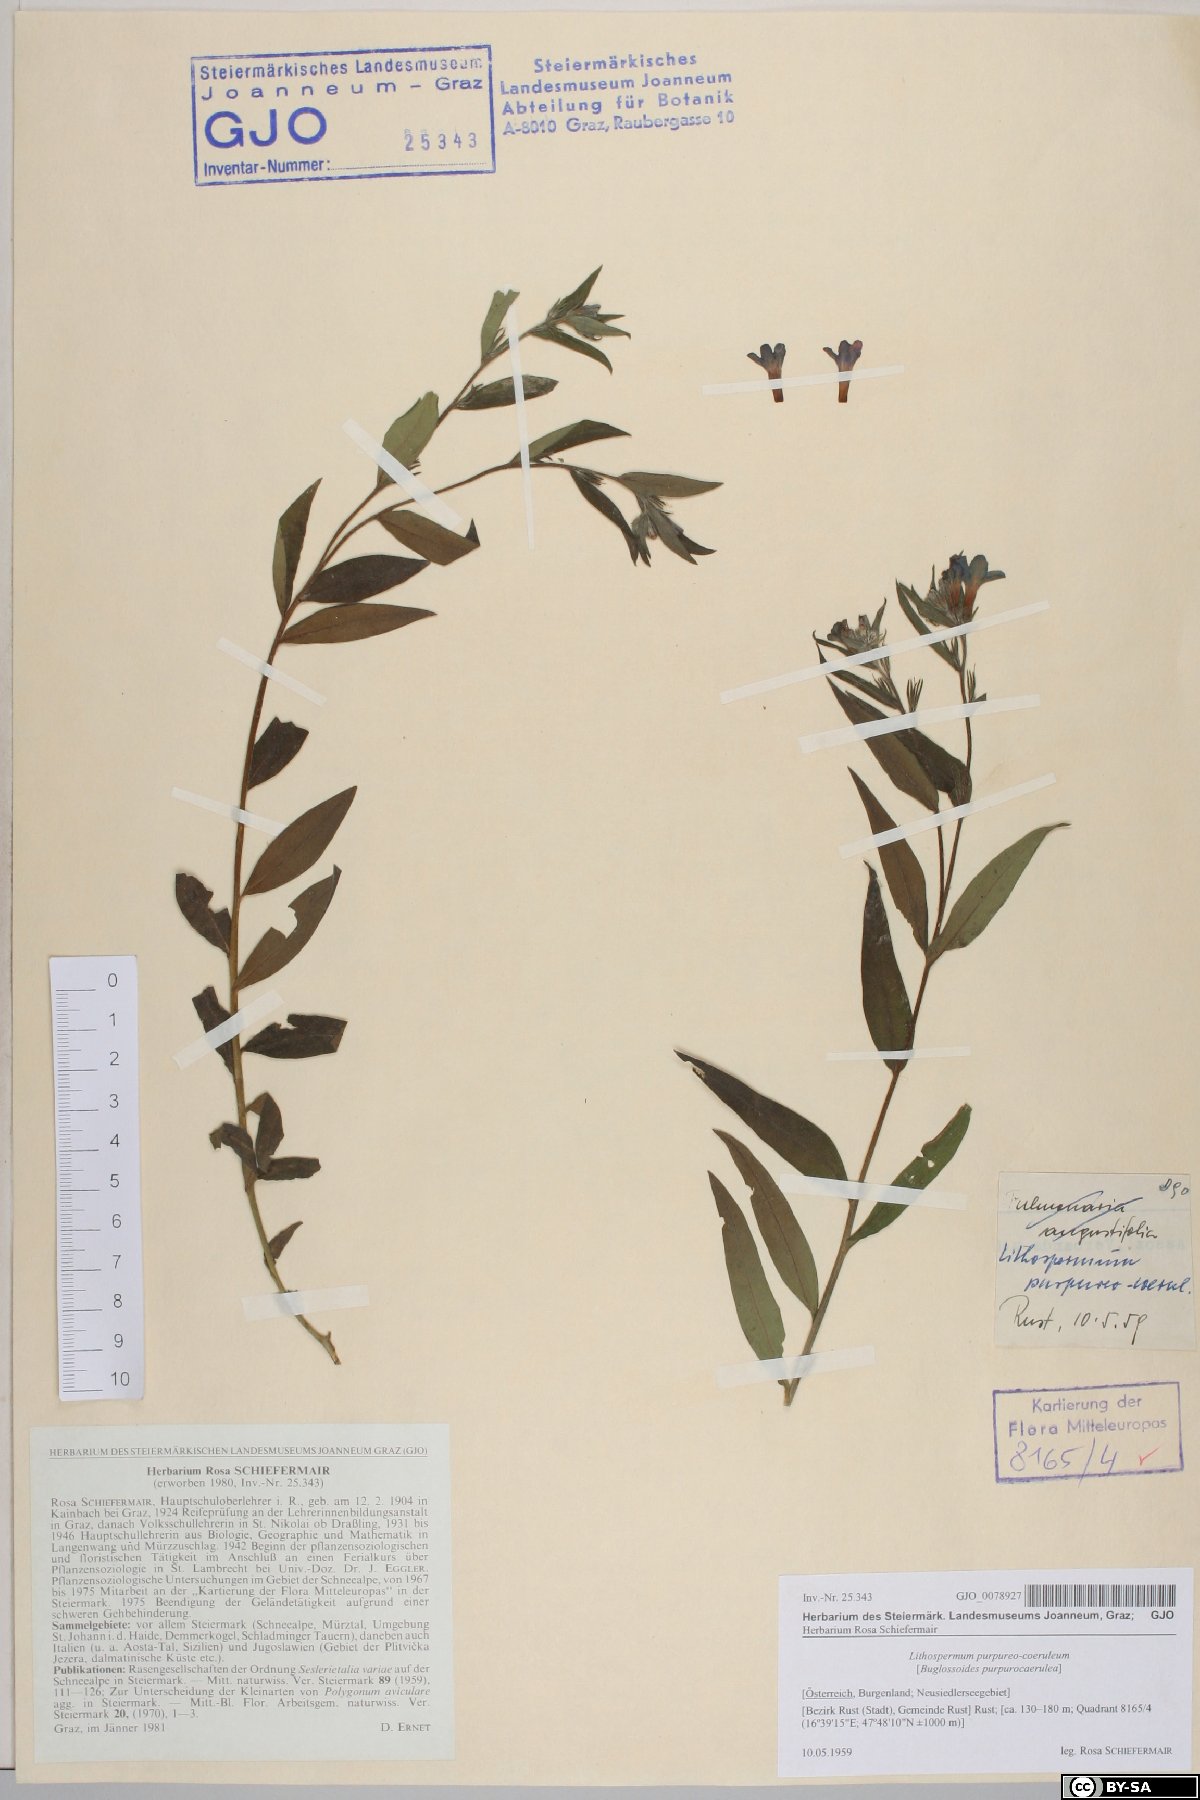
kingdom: Plantae
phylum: Tracheophyta
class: Magnoliopsida
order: Boraginales
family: Boraginaceae
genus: Aegonychon
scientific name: Aegonychon purpurocaeruleum
